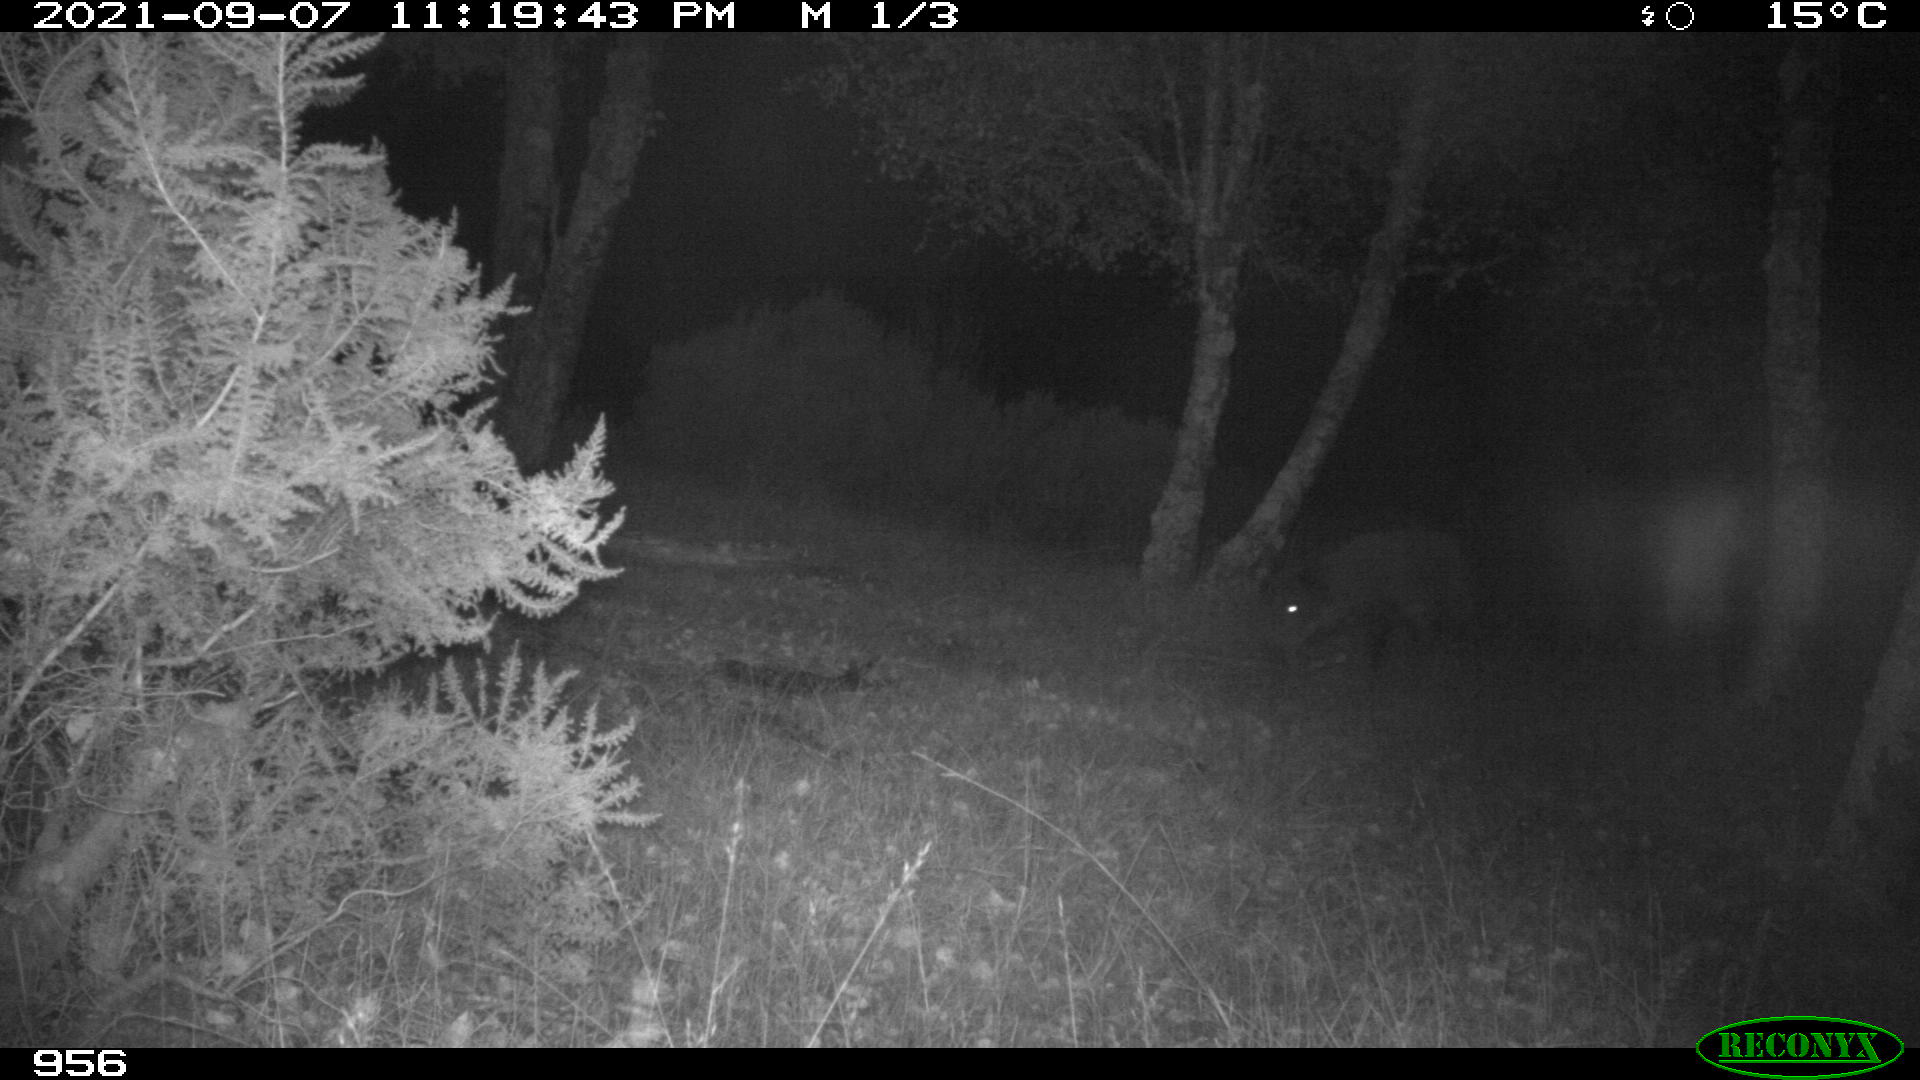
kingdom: Animalia
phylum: Chordata
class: Mammalia
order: Artiodactyla
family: Suidae
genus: Sus
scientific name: Sus scrofa
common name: Wild boar
